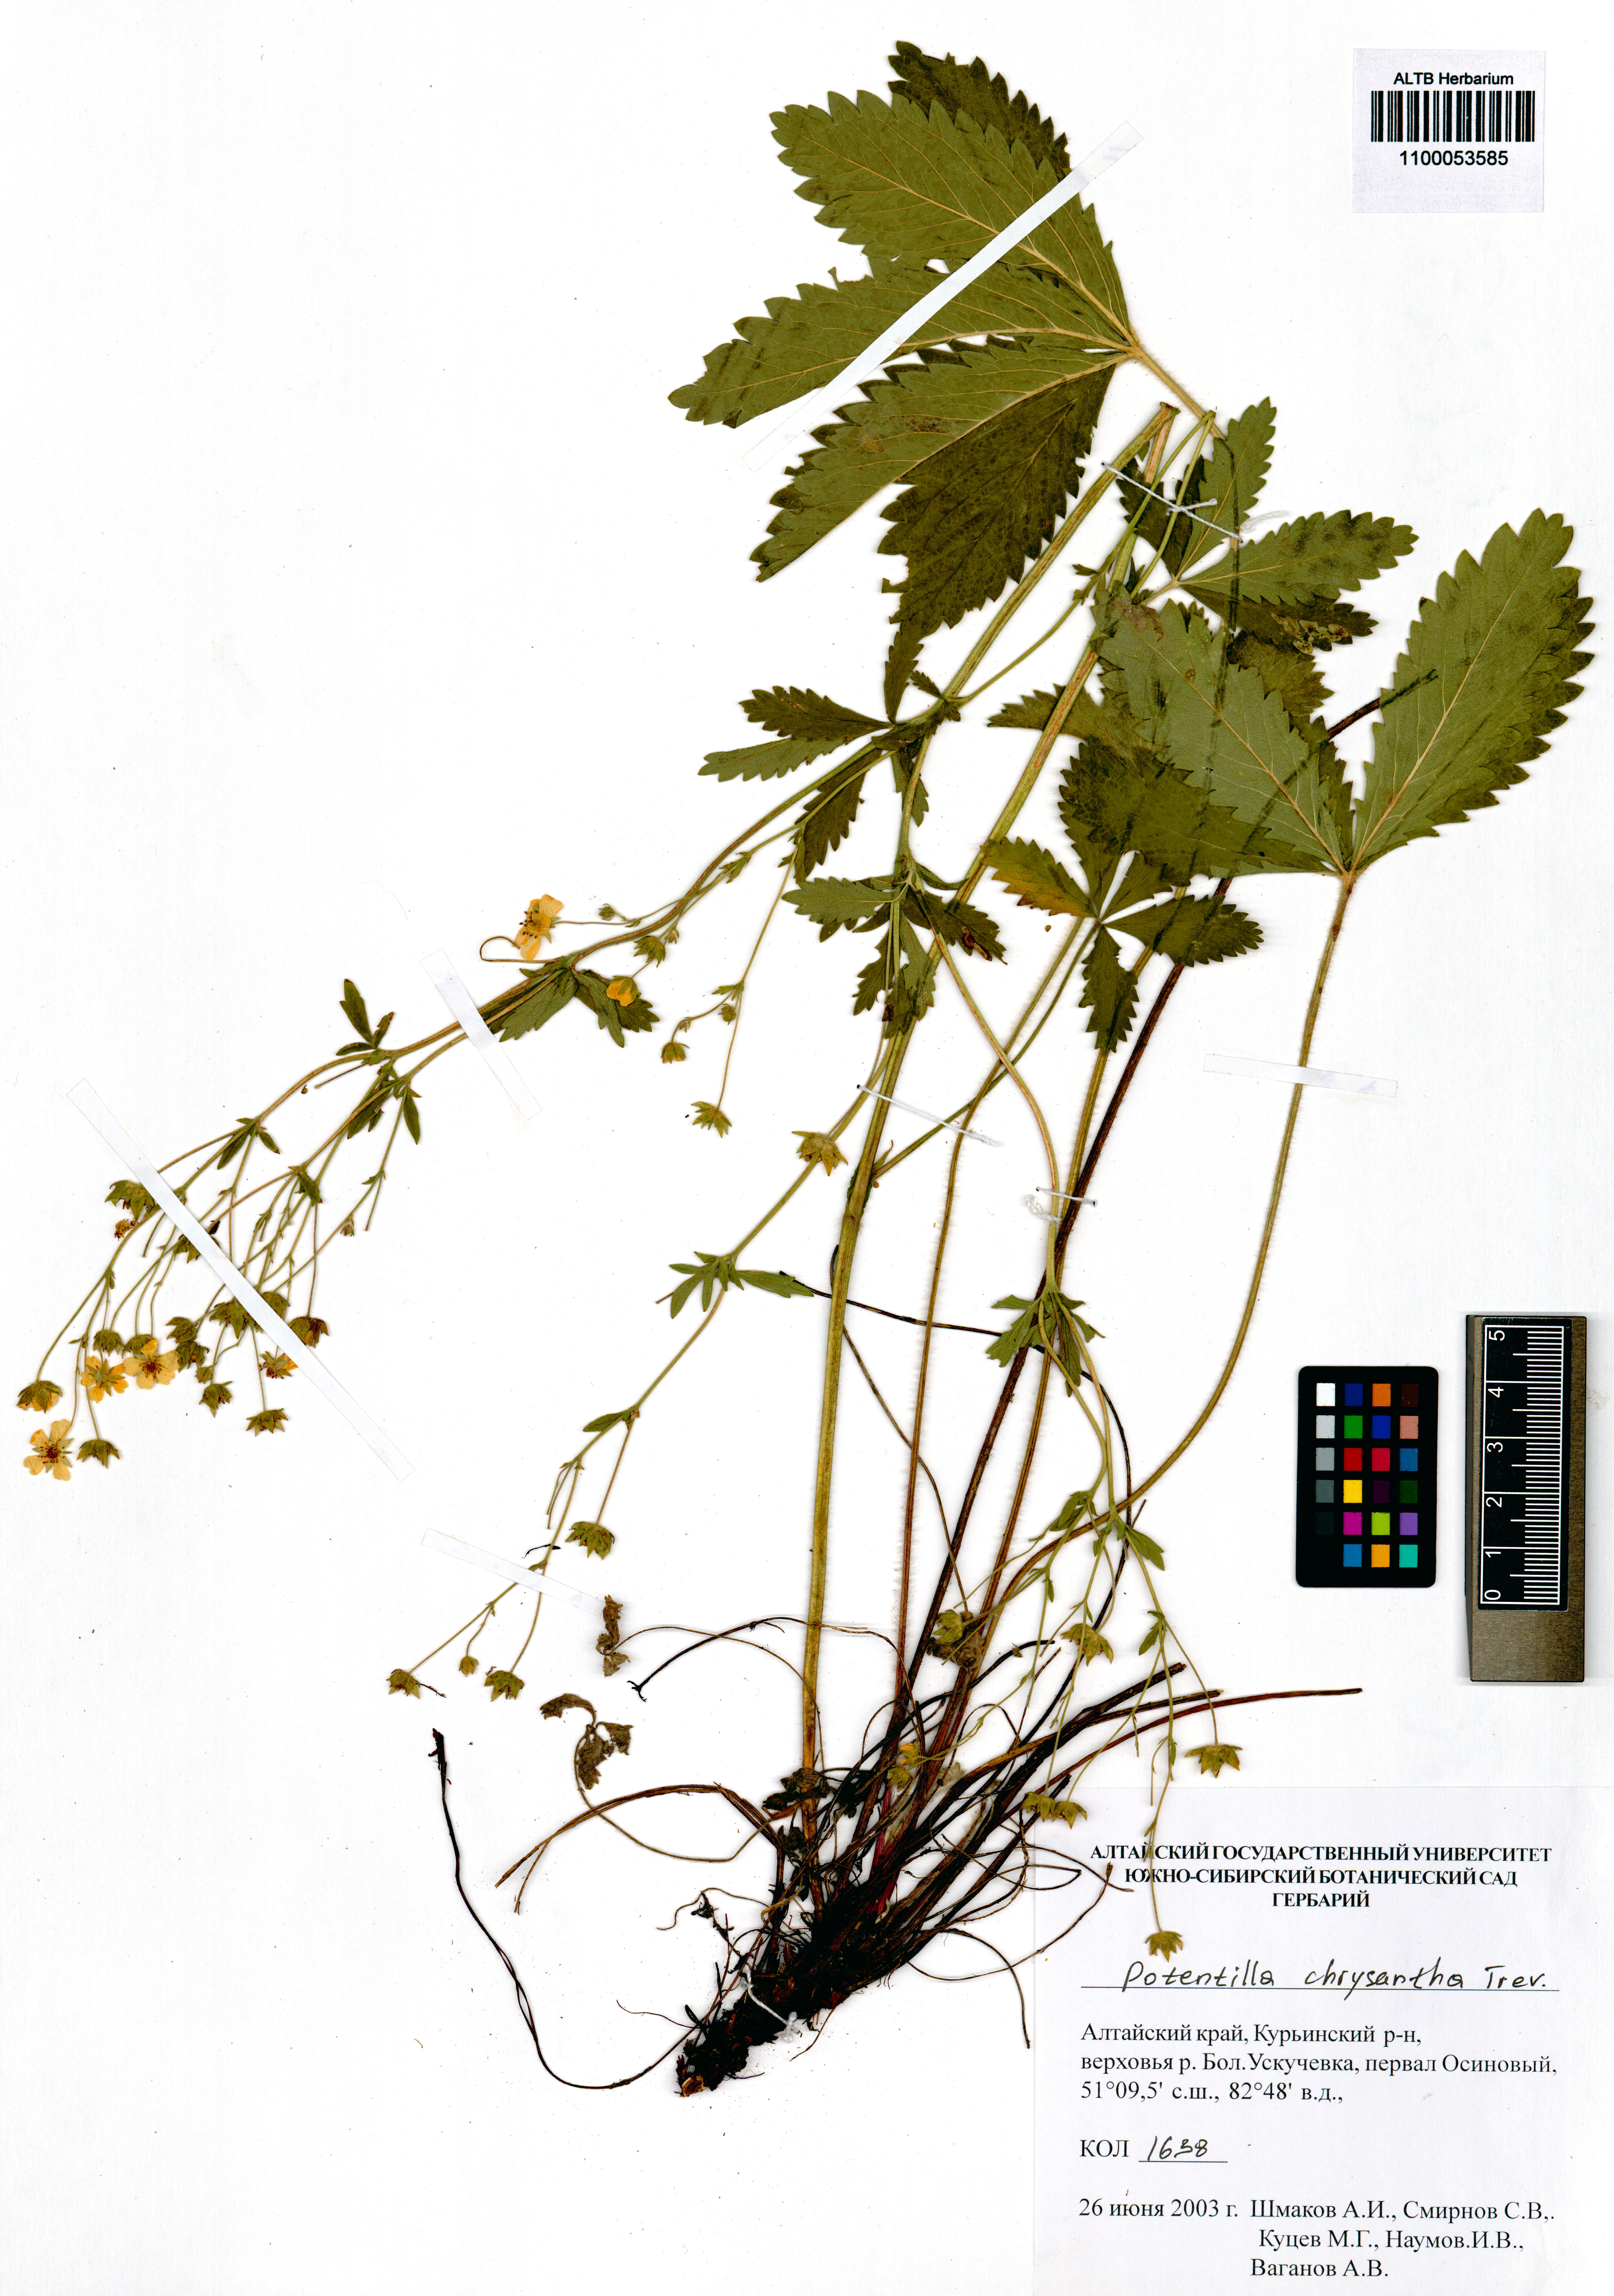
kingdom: Plantae
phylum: Tracheophyta
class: Magnoliopsida
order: Rosales
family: Rosaceae
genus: Potentilla
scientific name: Potentilla chrysantha
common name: Thuringian cinquefoil
